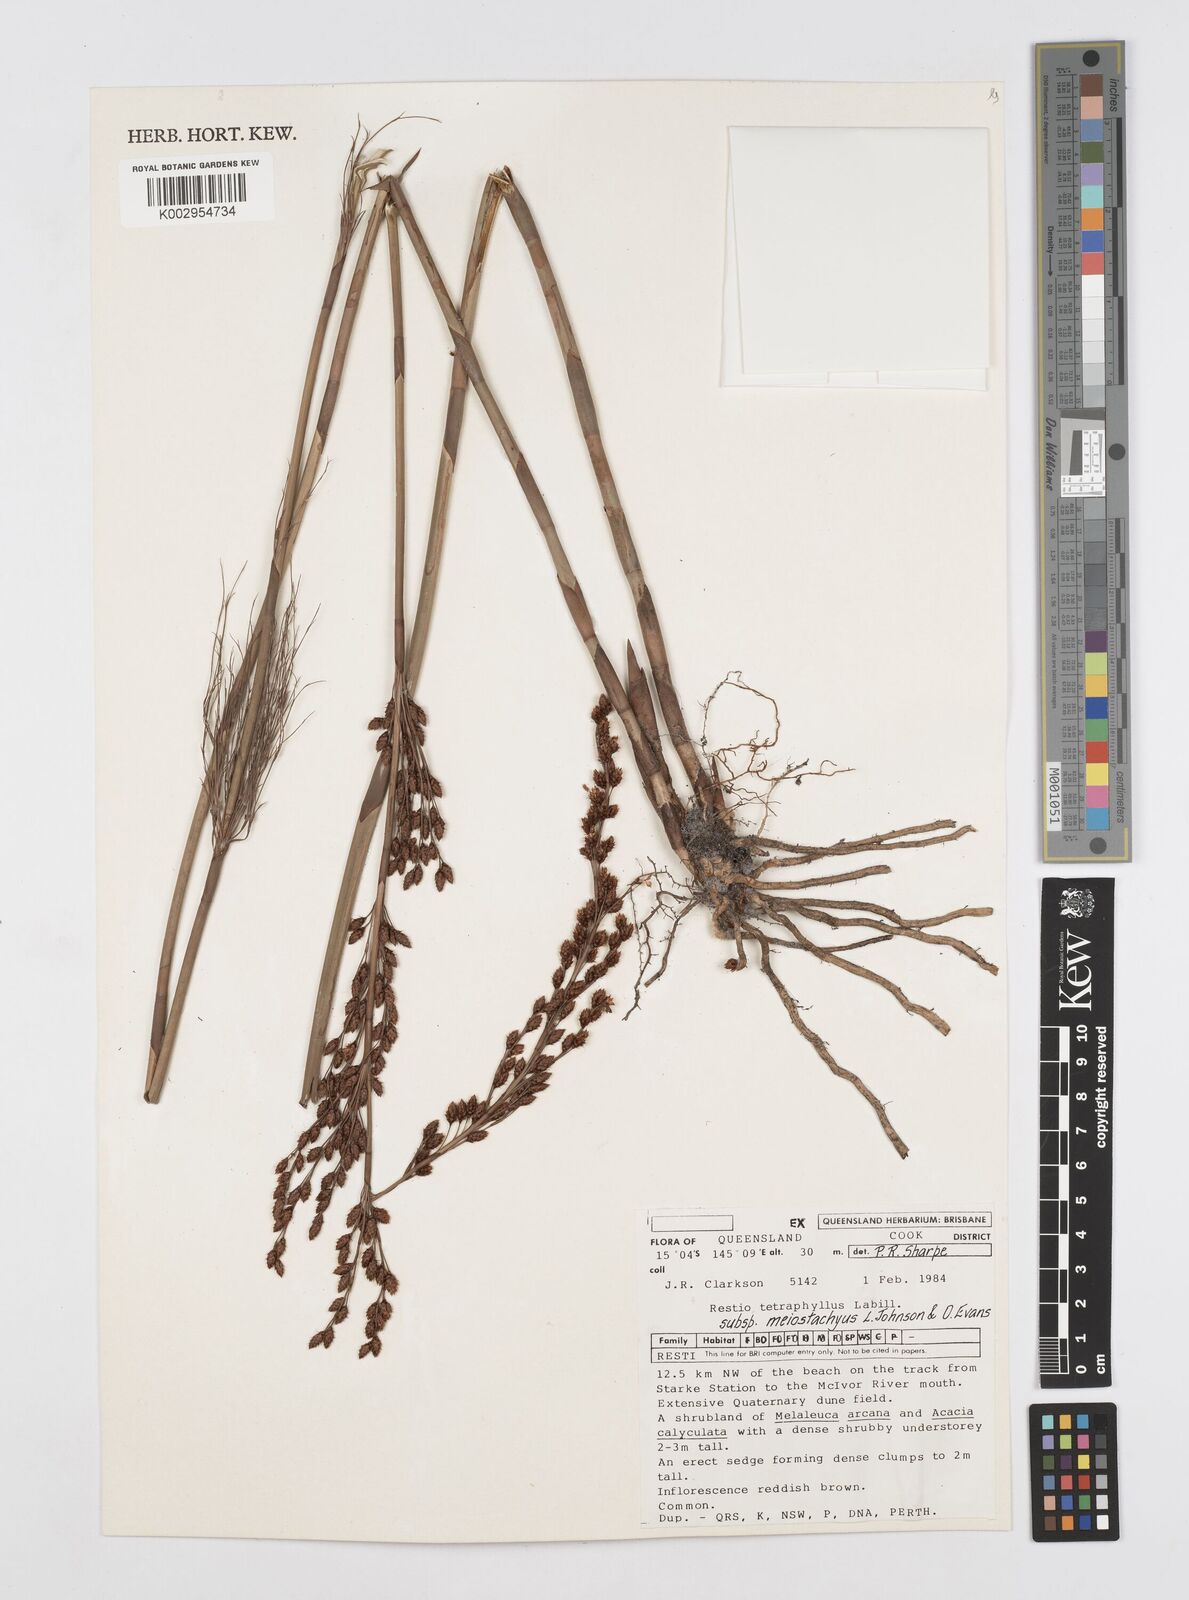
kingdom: Plantae
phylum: Tracheophyta
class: Liliopsida
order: Poales
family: Restionaceae
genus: Baloskion
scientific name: Baloskion tetraphyllum
